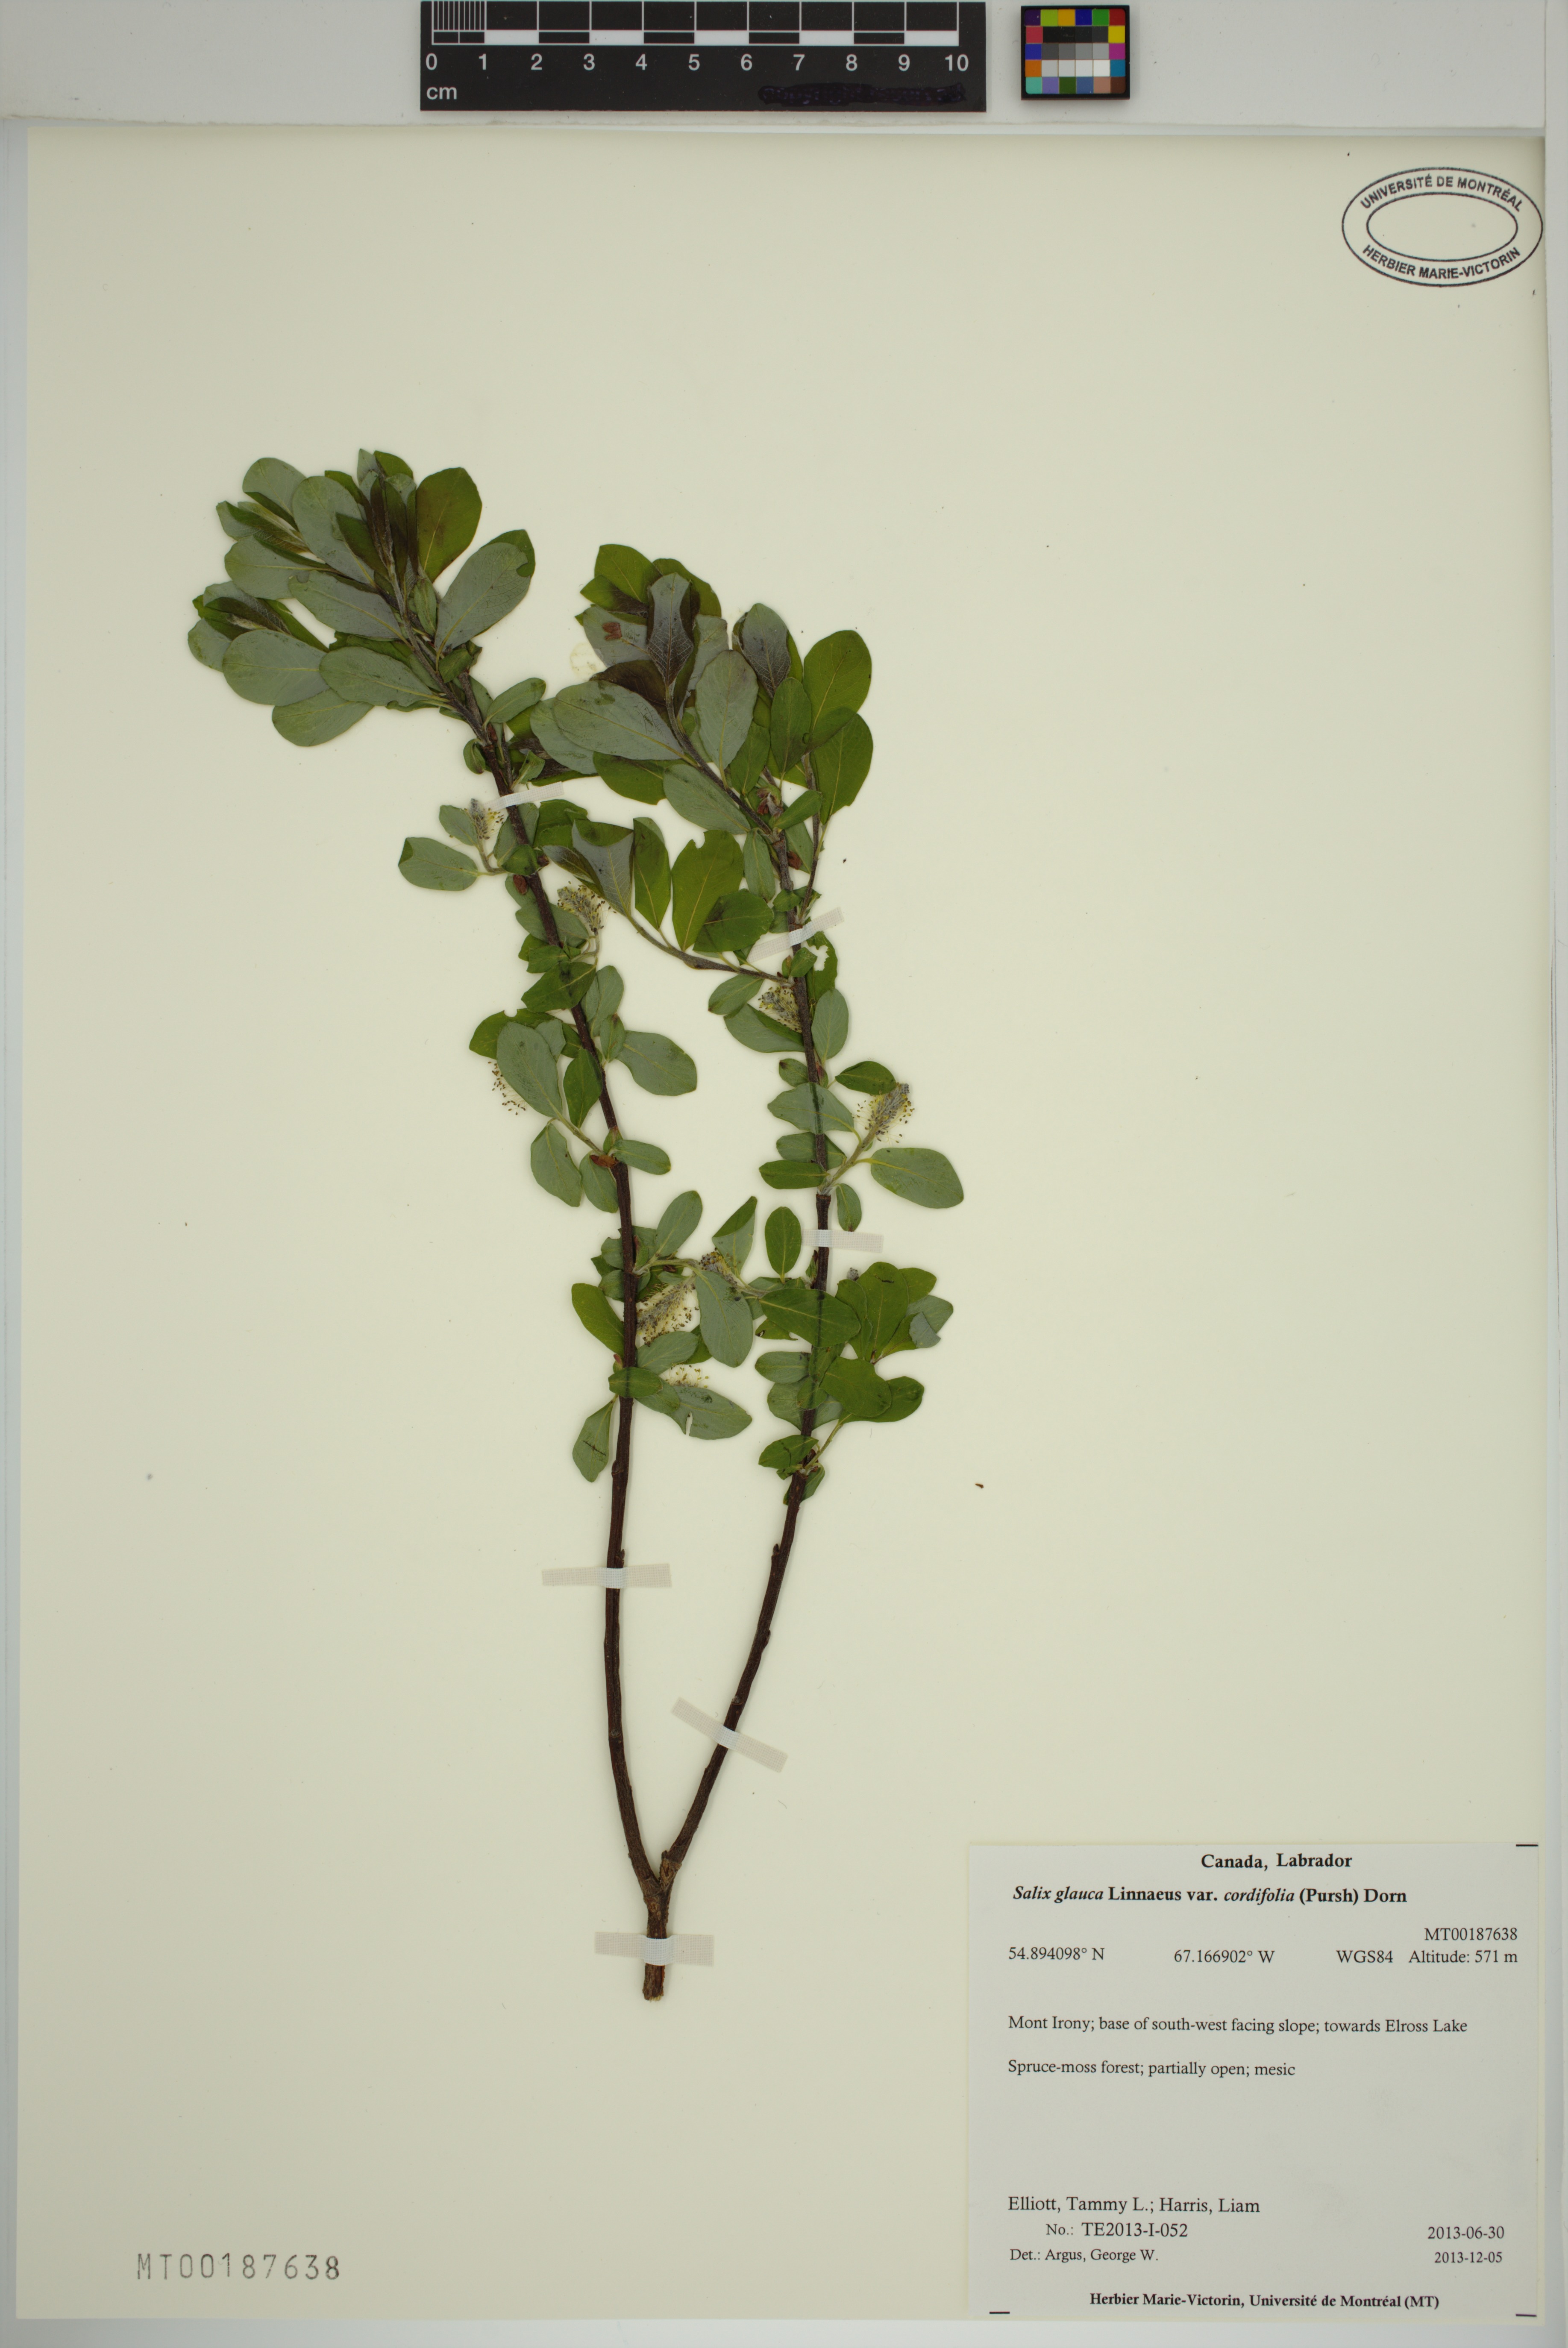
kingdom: Plantae
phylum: Tracheophyta
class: Magnoliopsida
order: Malpighiales
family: Salicaceae
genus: Salix
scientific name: Salix glauca
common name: Glaucous willow
